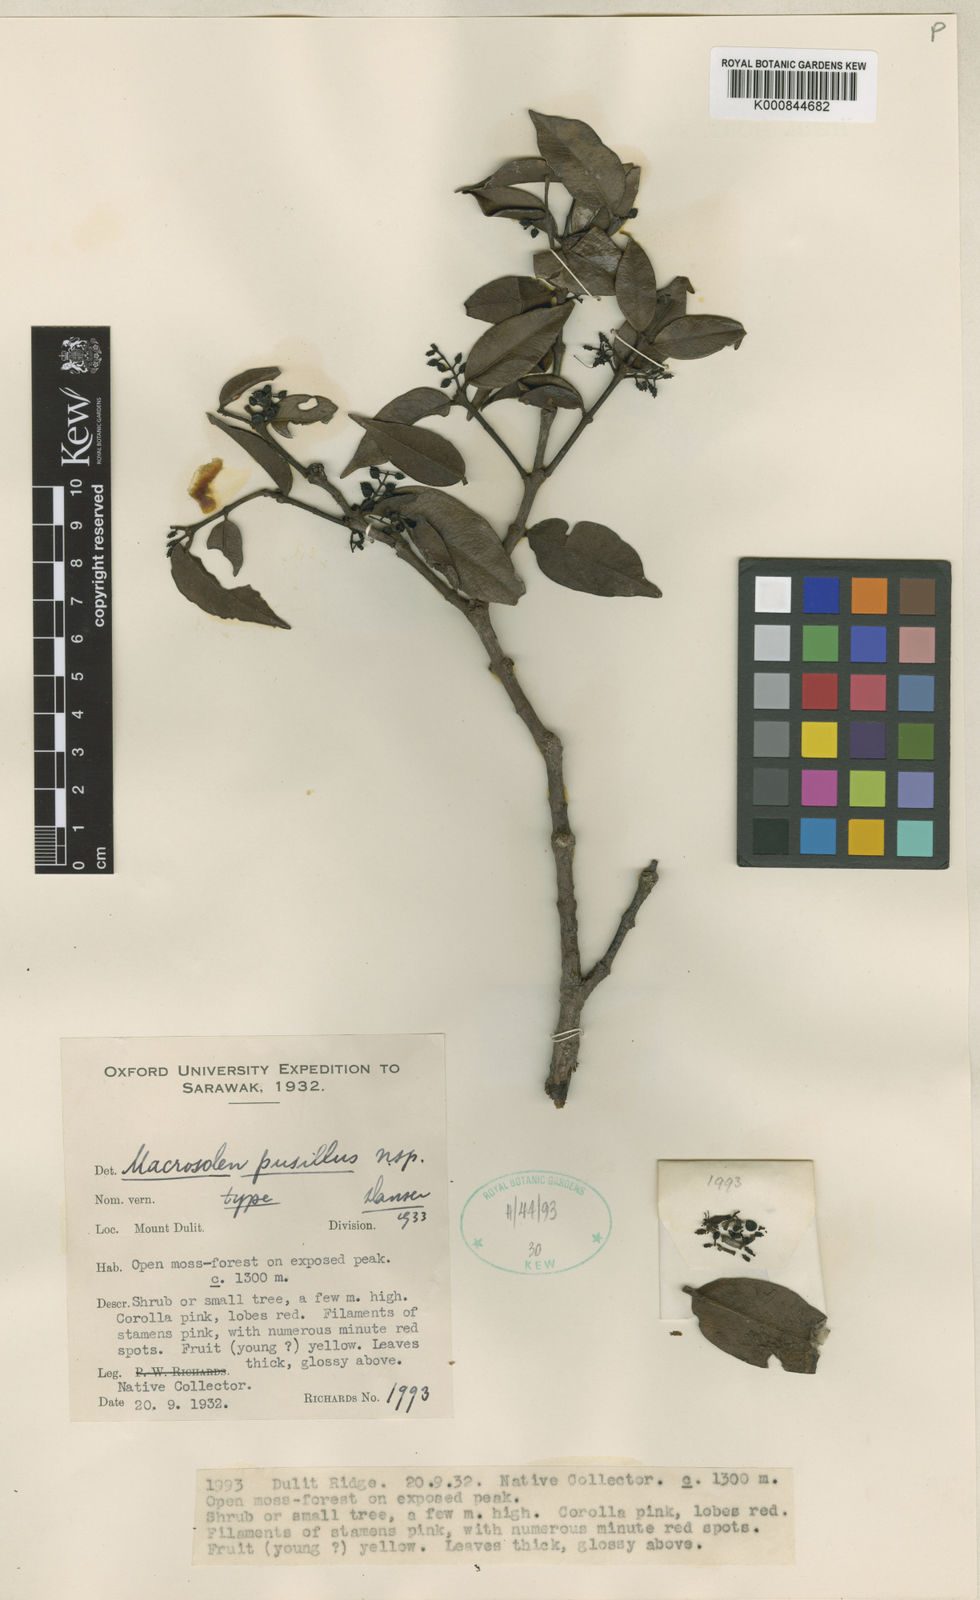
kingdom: Plantae
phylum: Tracheophyta
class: Magnoliopsida
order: Santalales
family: Loranthaceae
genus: Macrosolen
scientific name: Macrosolen pusillus
